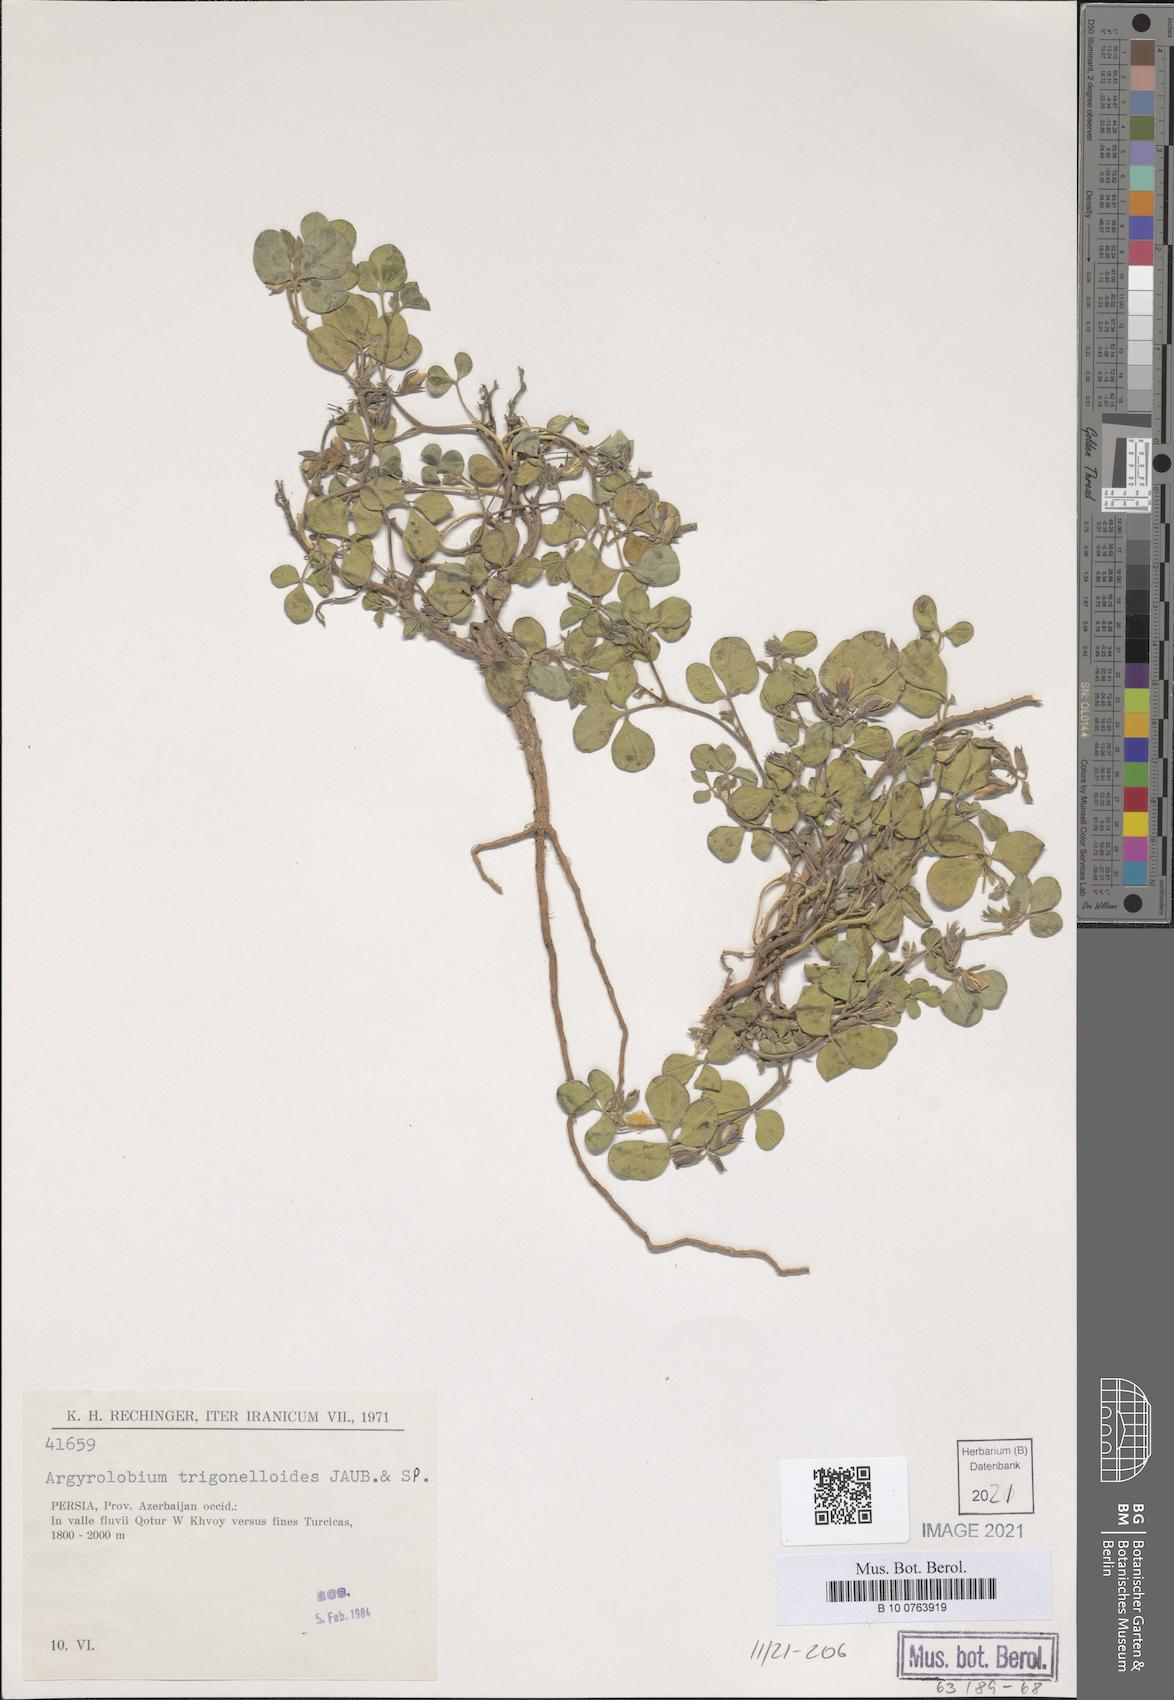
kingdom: Plantae
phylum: Tracheophyta
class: Magnoliopsida
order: Fabales
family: Fabaceae
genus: Argyrolobium
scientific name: Argyrolobium roseum
